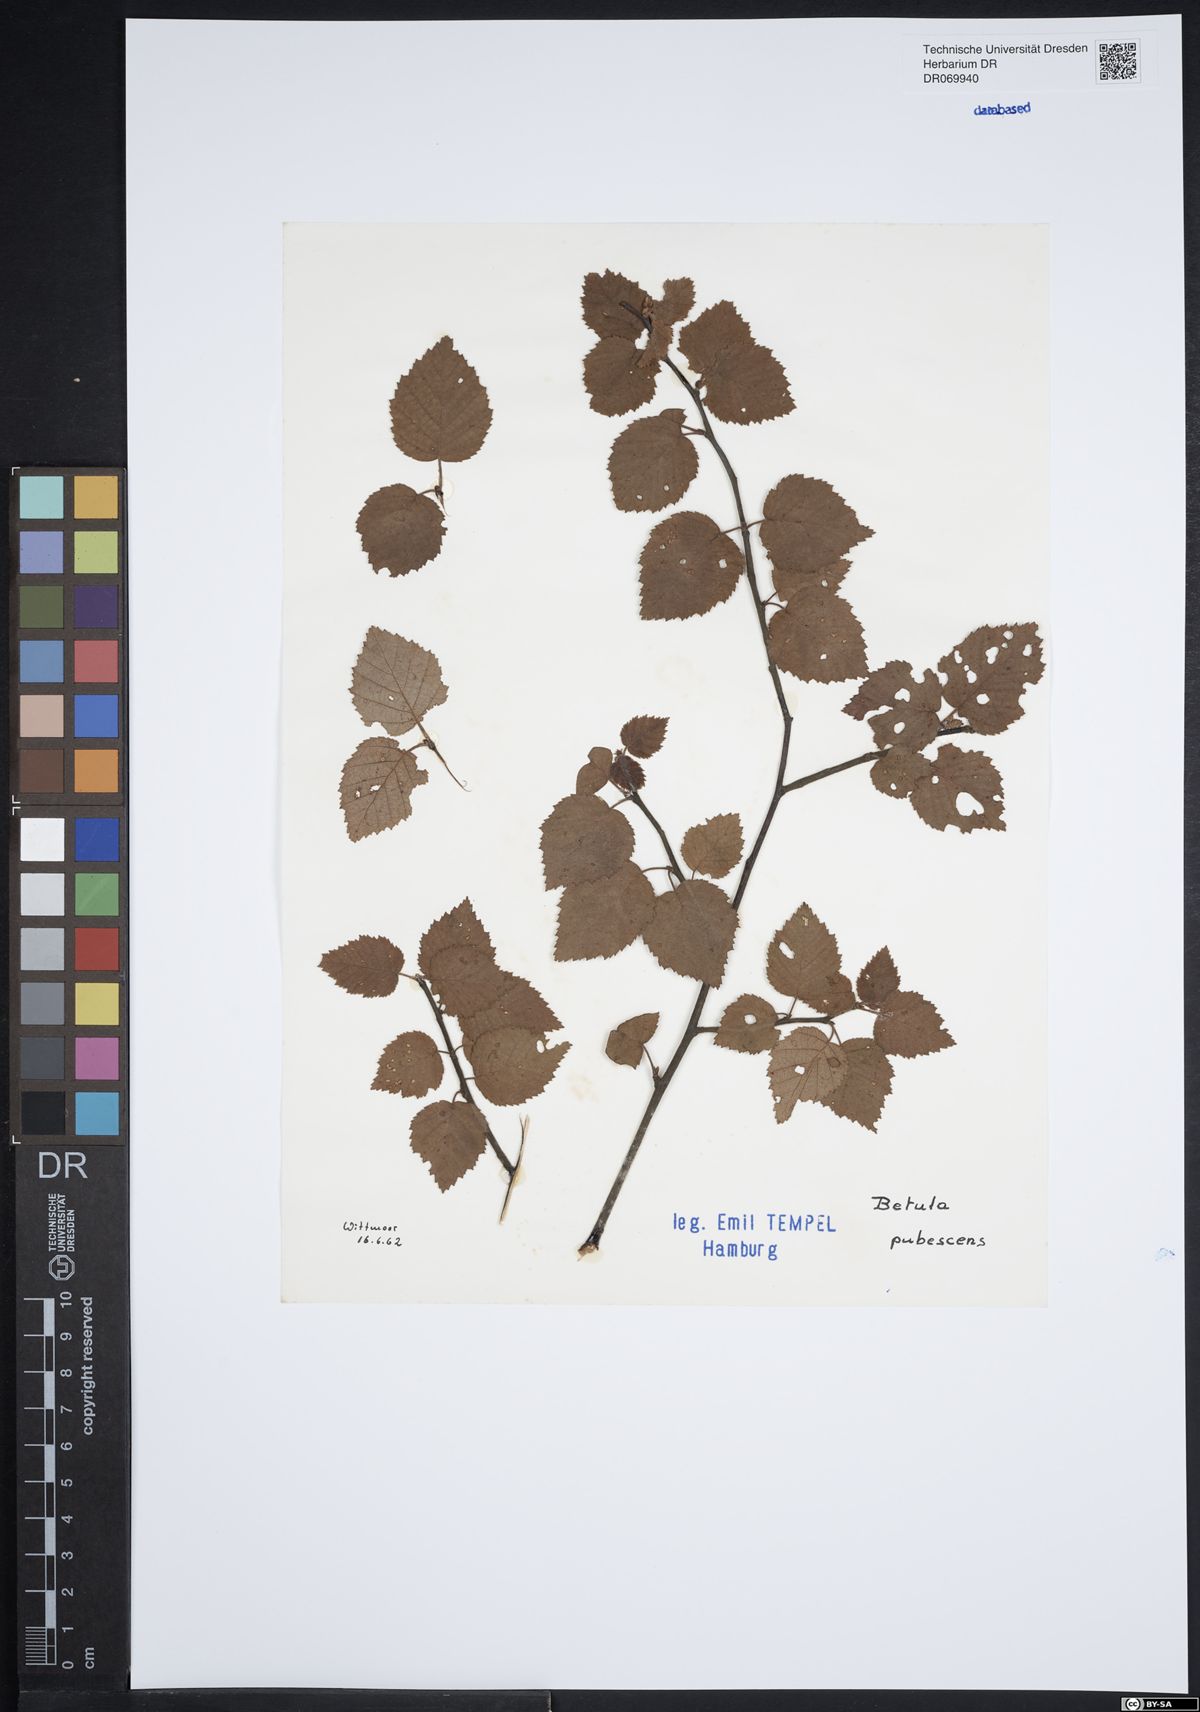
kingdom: Plantae
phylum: Tracheophyta
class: Magnoliopsida
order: Fagales
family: Betulaceae
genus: Betula
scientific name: Betula pubescens
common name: Downy birch
